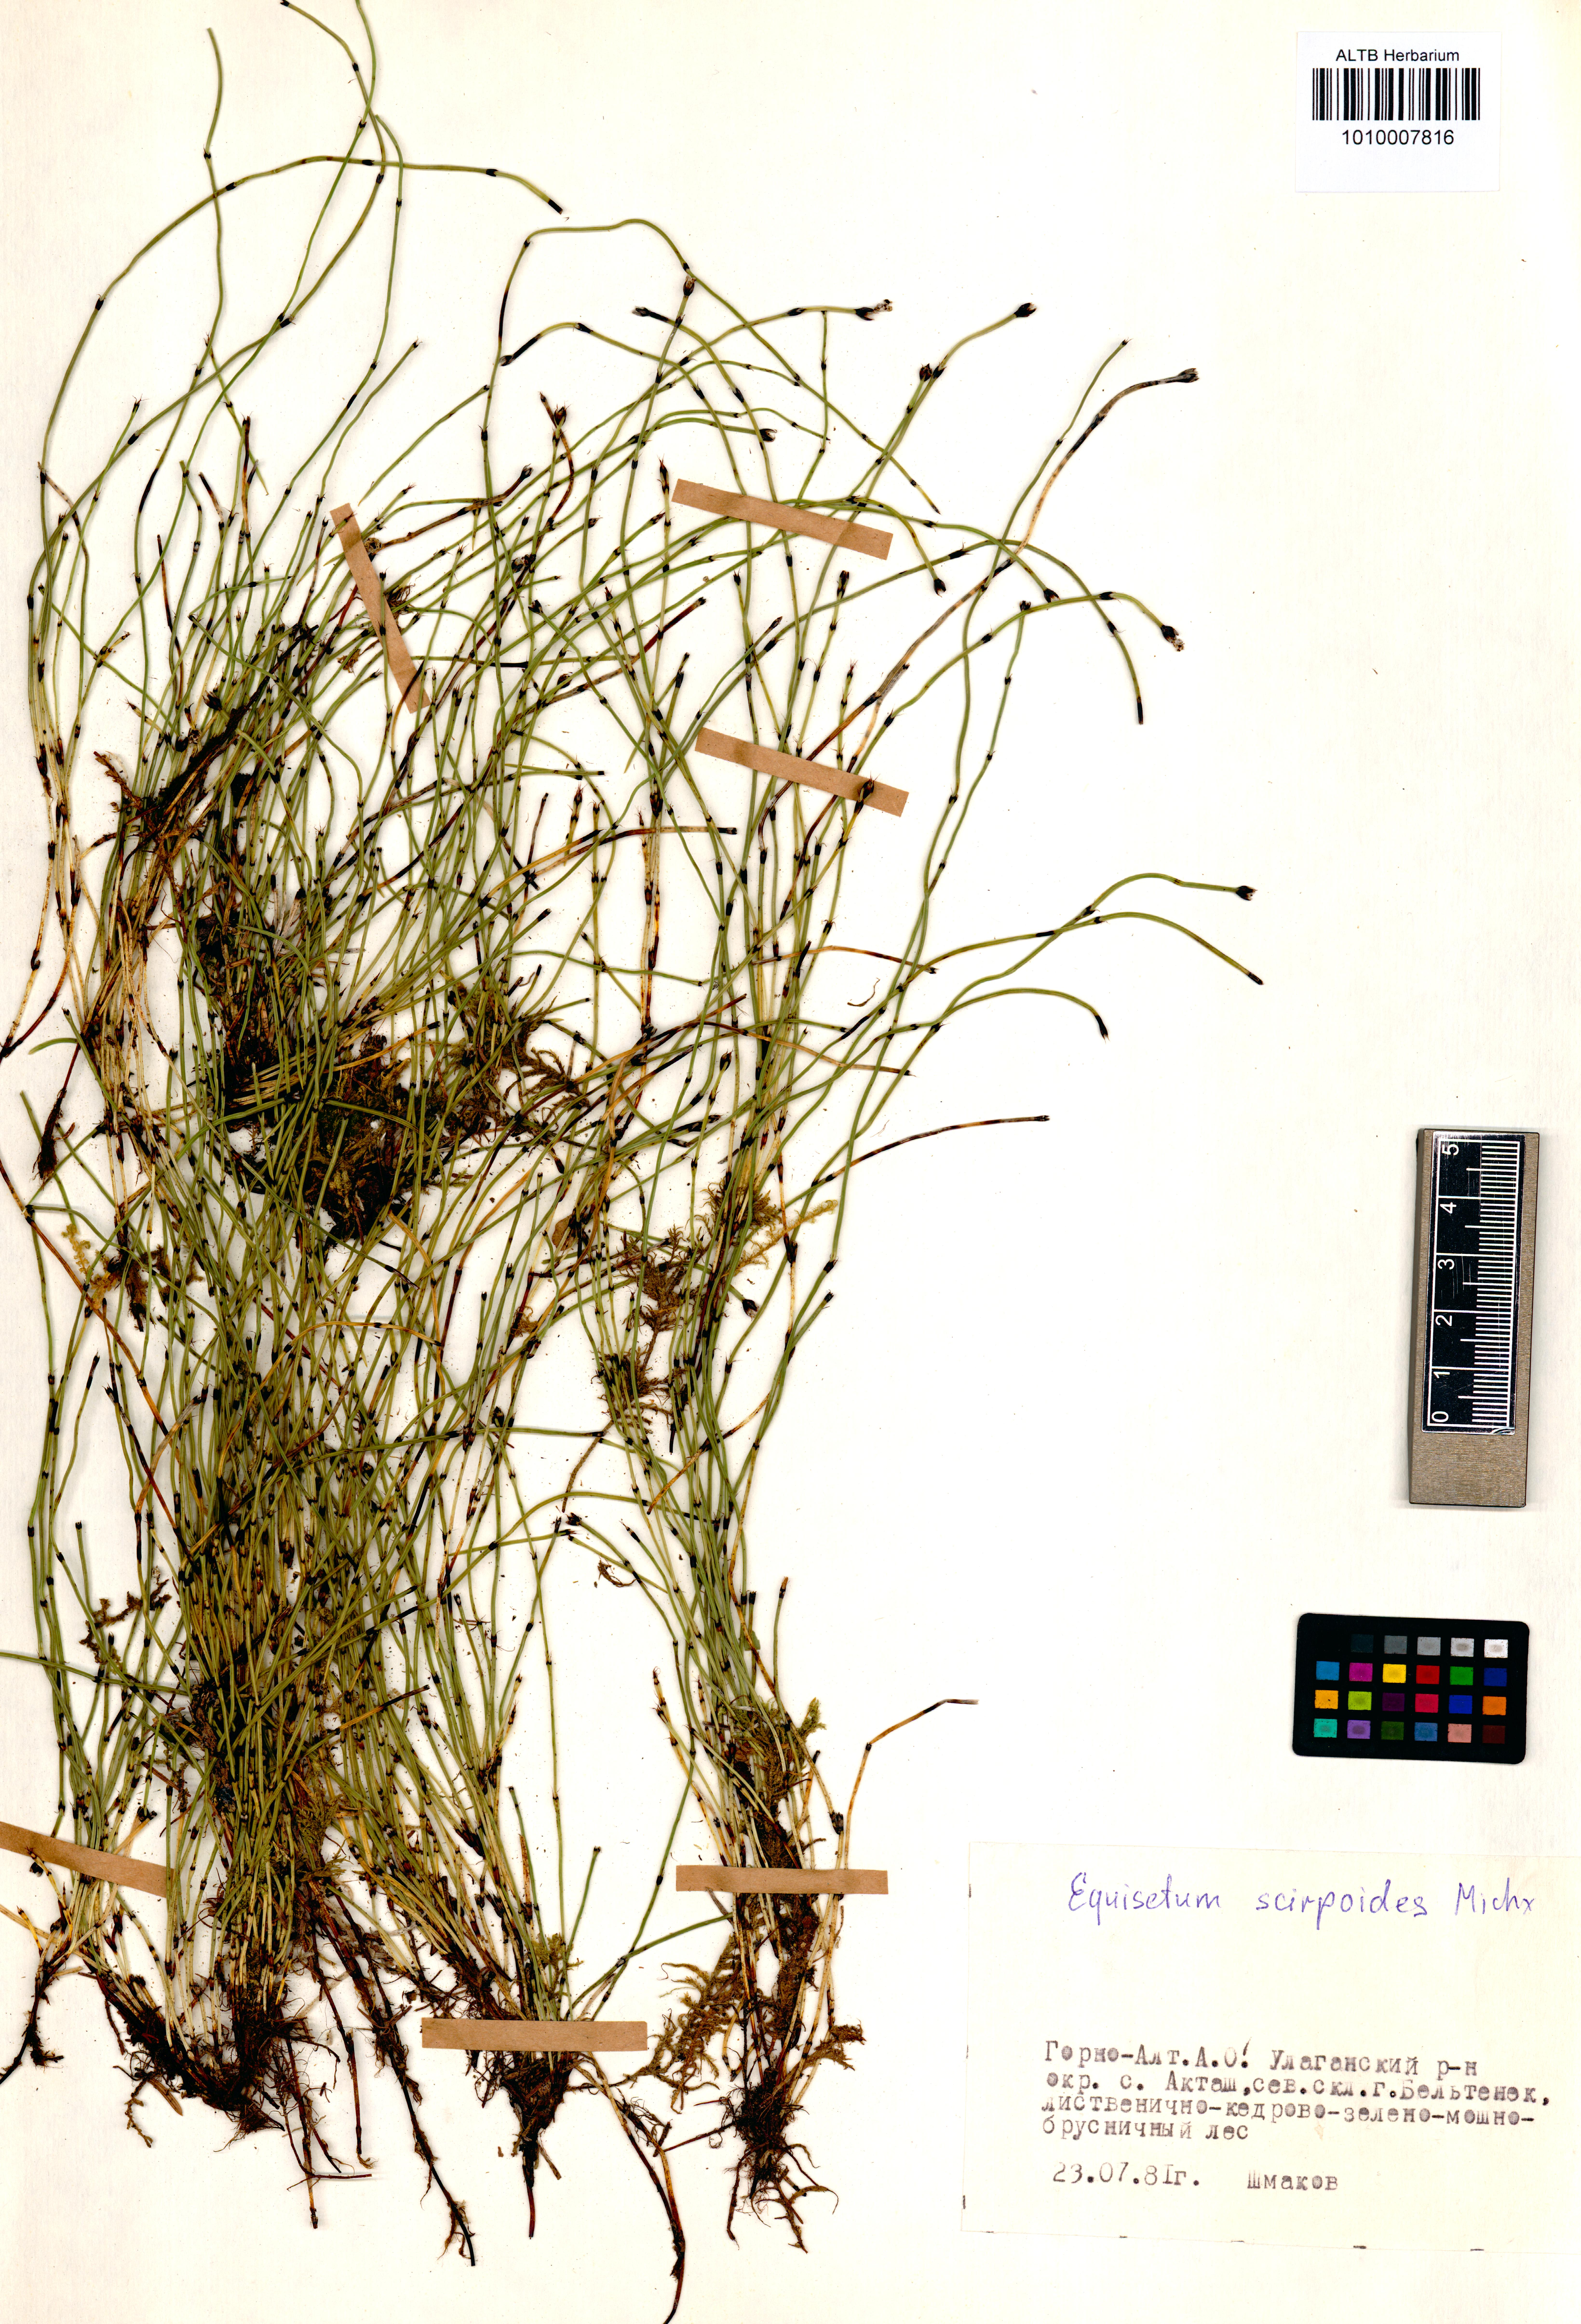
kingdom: Plantae
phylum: Tracheophyta
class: Polypodiopsida
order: Equisetales
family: Equisetaceae
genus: Equisetum
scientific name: Equisetum scirpoides
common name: Delicate horsetail
